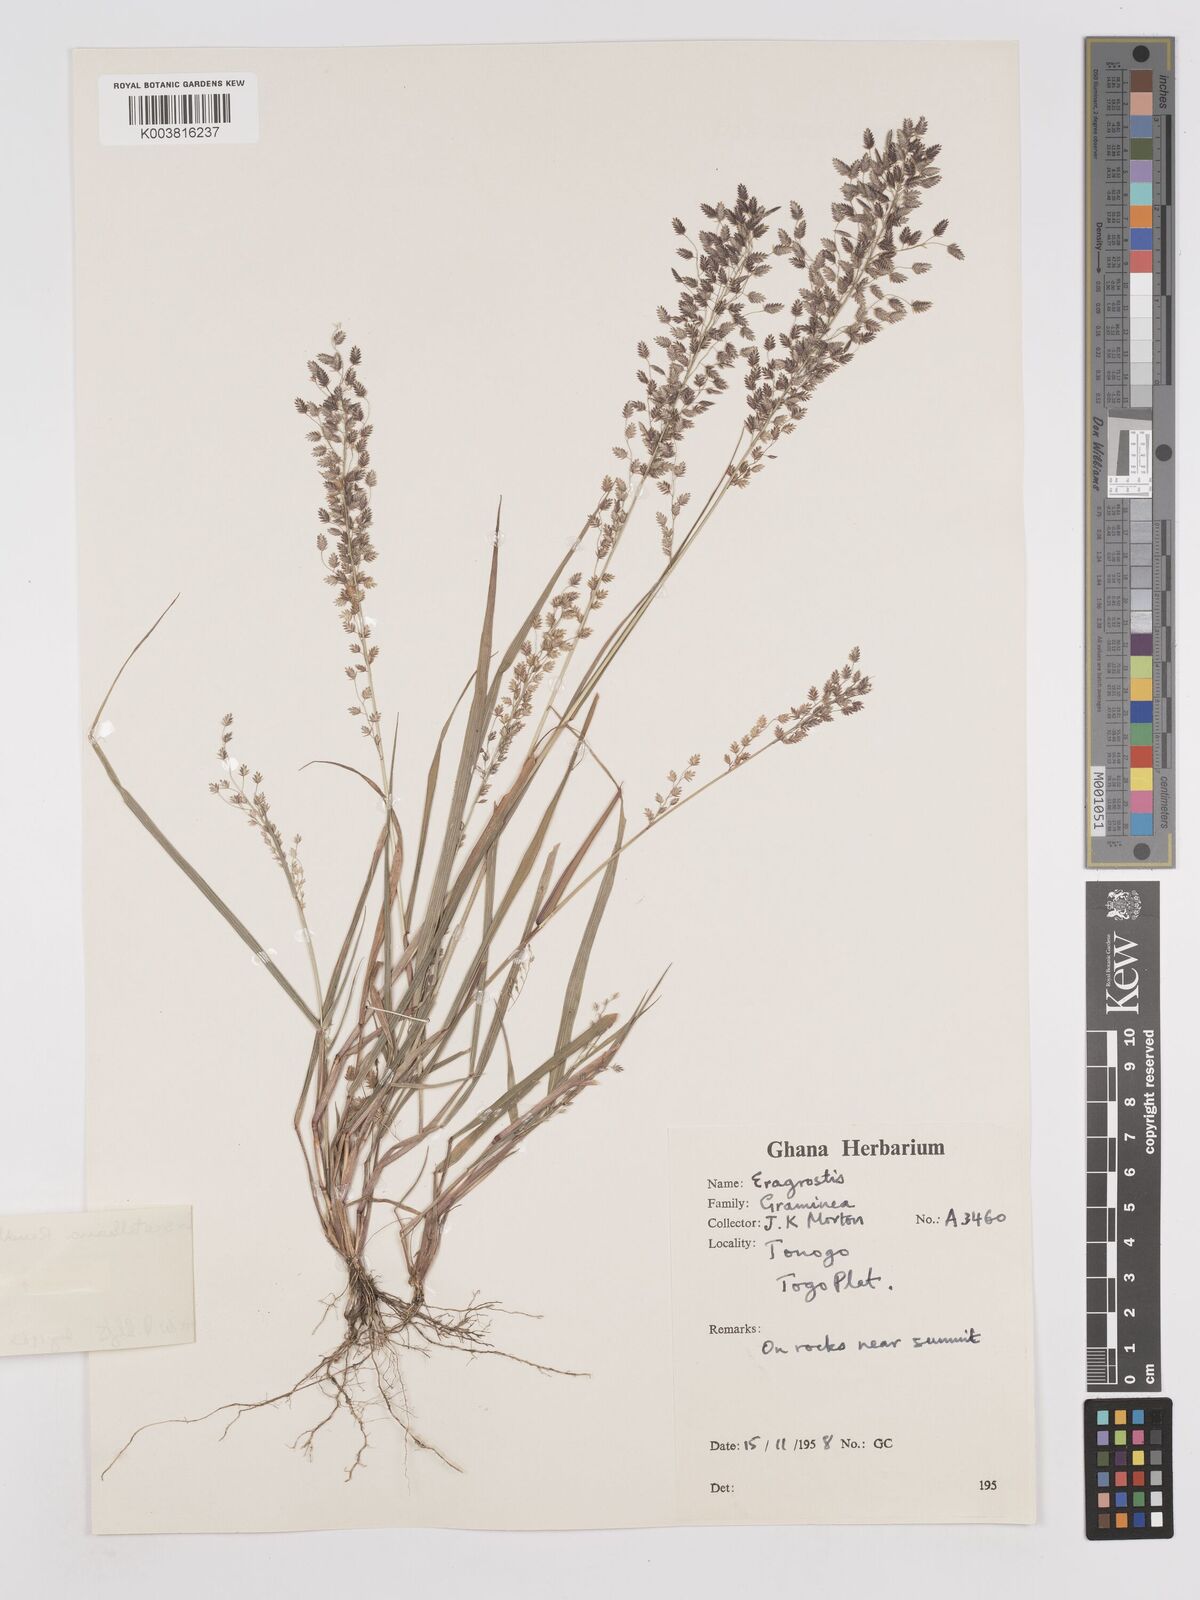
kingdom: Plantae
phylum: Tracheophyta
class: Liliopsida
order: Poales
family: Poaceae
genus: Eragrostis
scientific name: Eragrostis scotelliana
